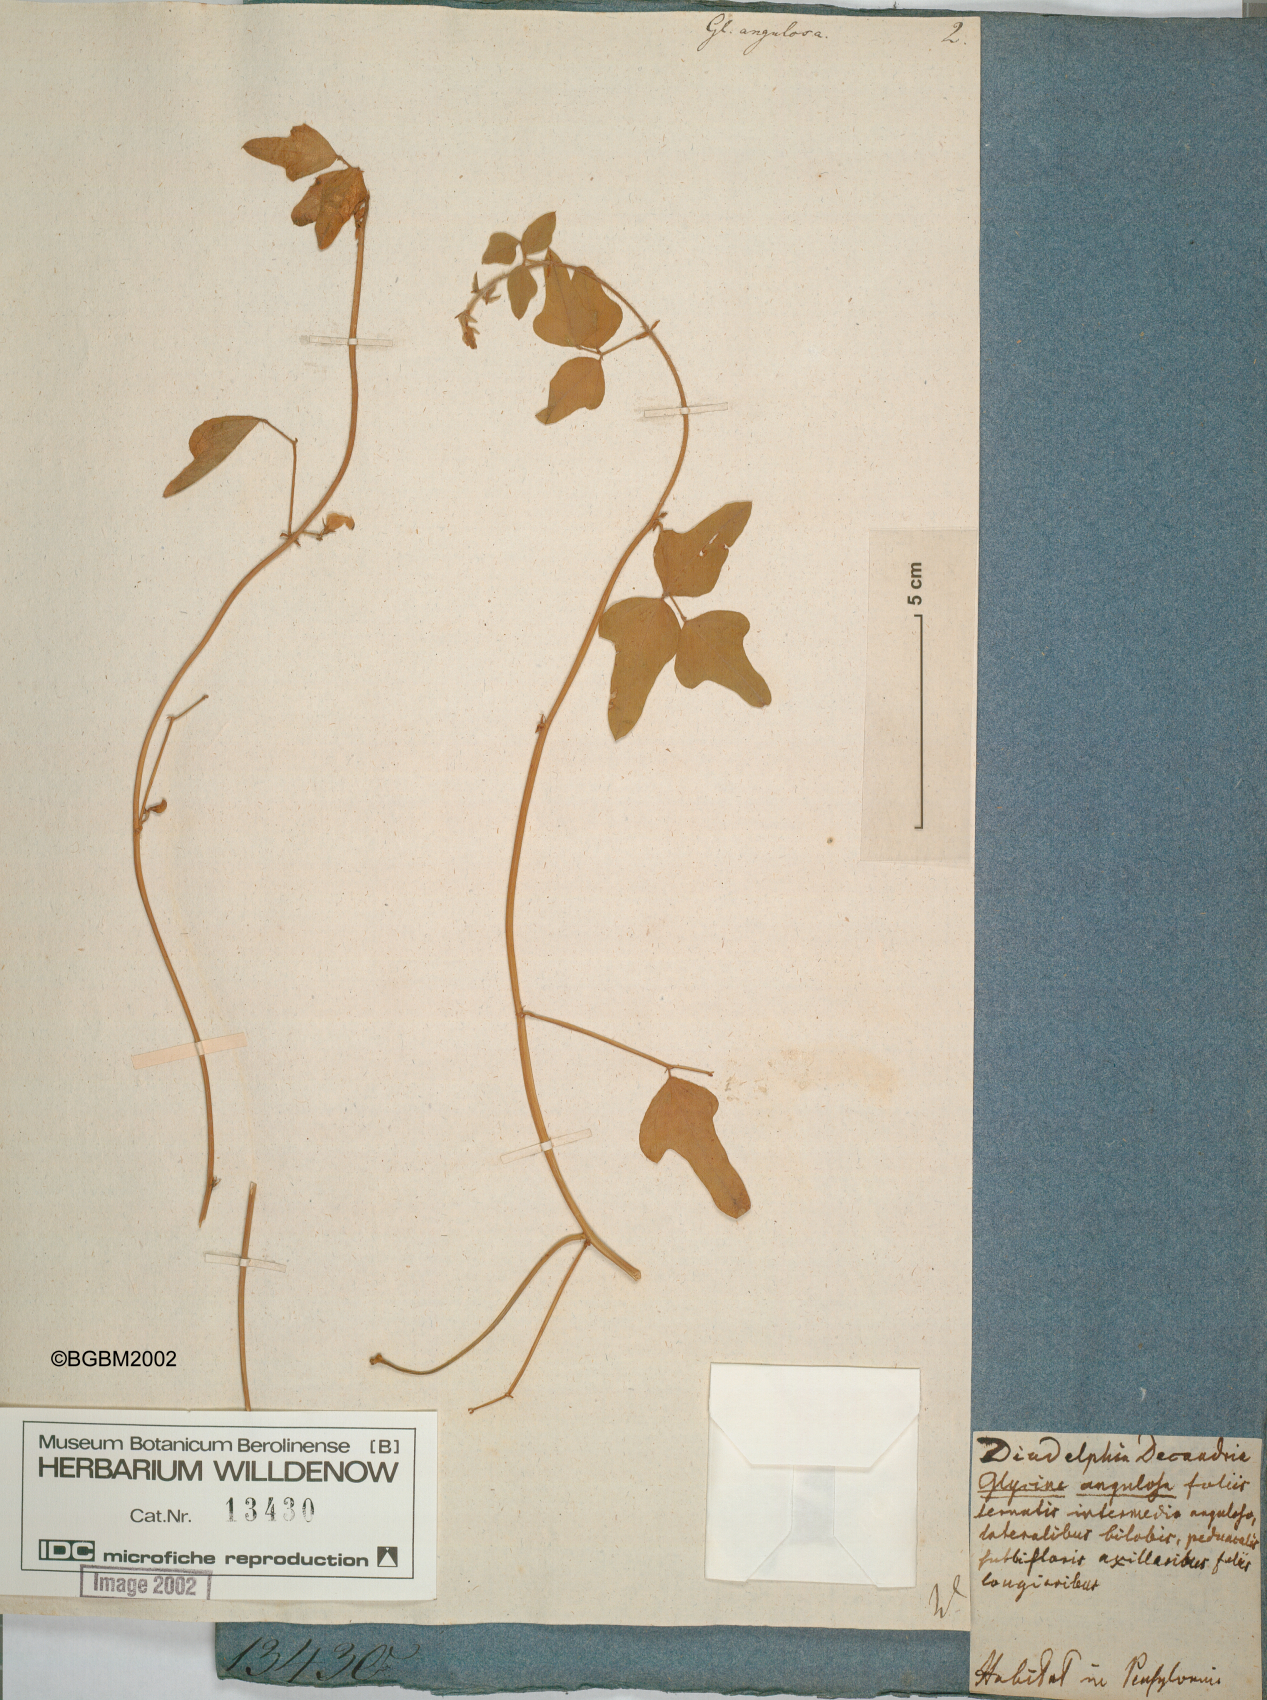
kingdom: Plantae
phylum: Tracheophyta
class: Magnoliopsida
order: Fabales
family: Fabaceae
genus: Strophostyles
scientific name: Strophostyles helvola
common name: Trailing wild bean
